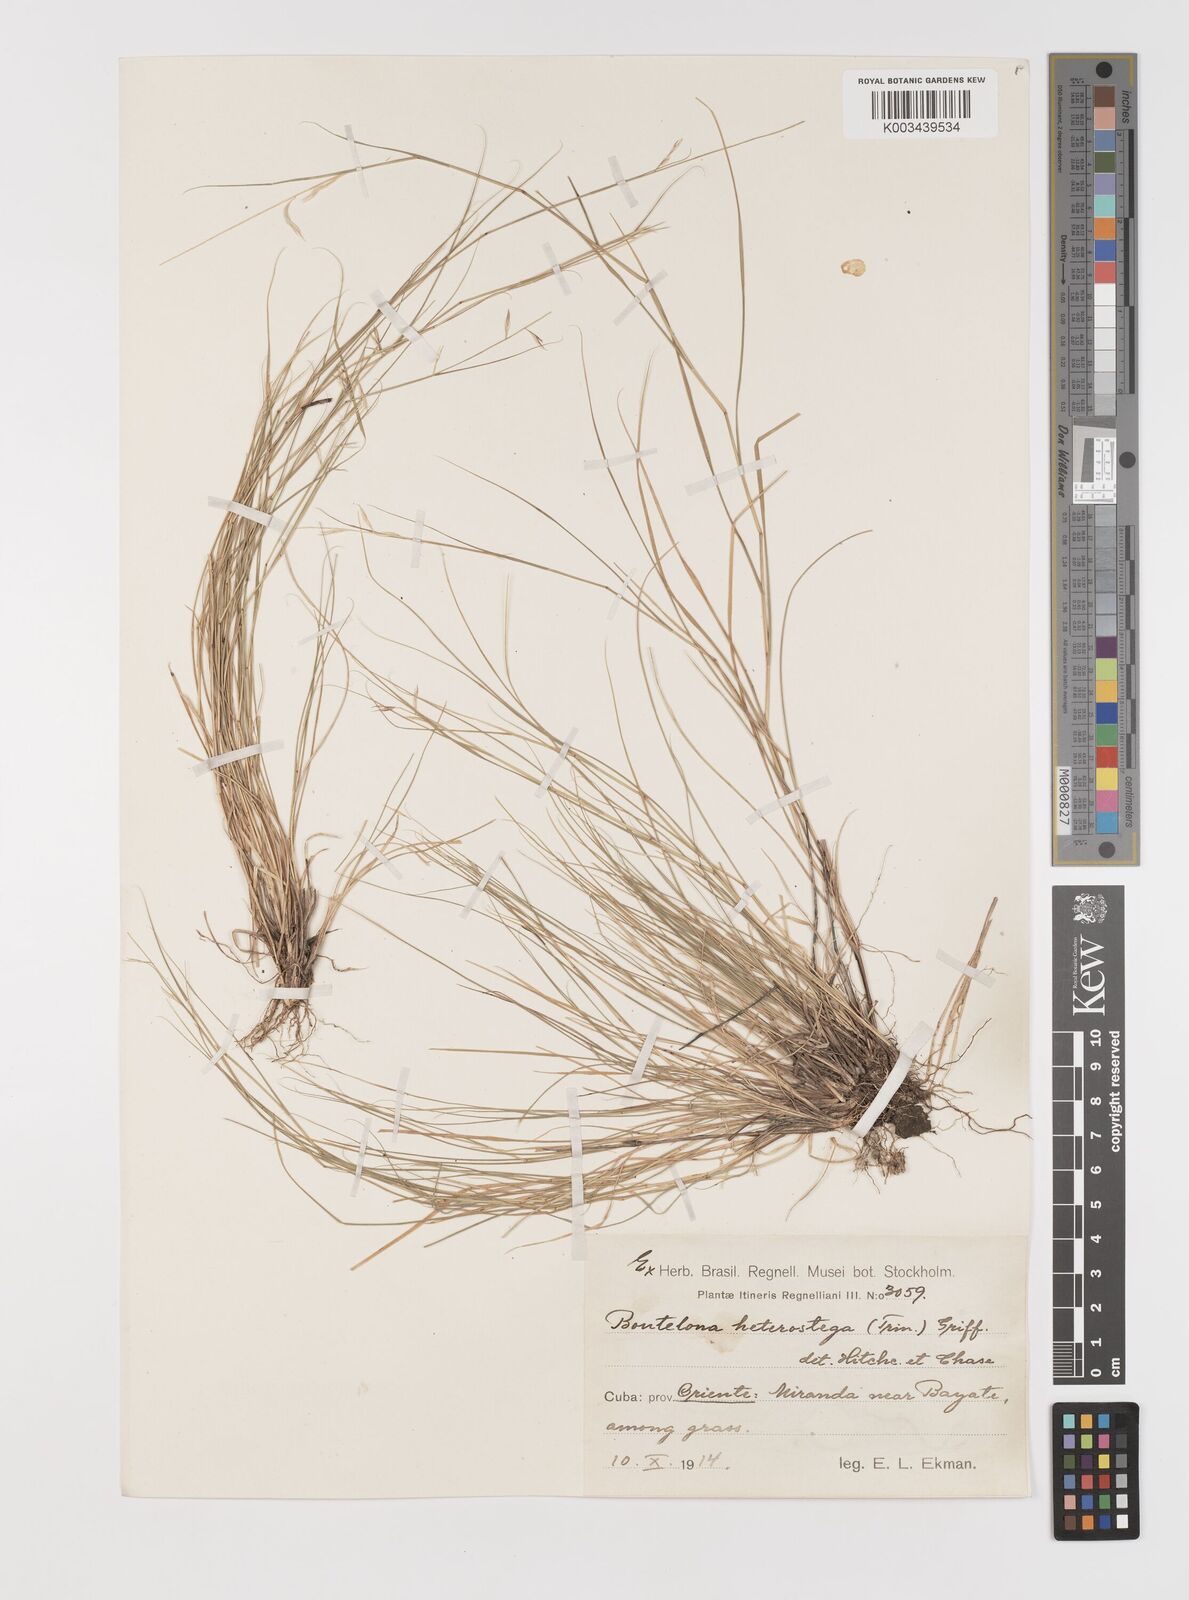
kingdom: Plantae
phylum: Tracheophyta
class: Liliopsida
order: Poales
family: Poaceae
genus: Bouteloua
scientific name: Bouteloua repens
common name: Slender grama
